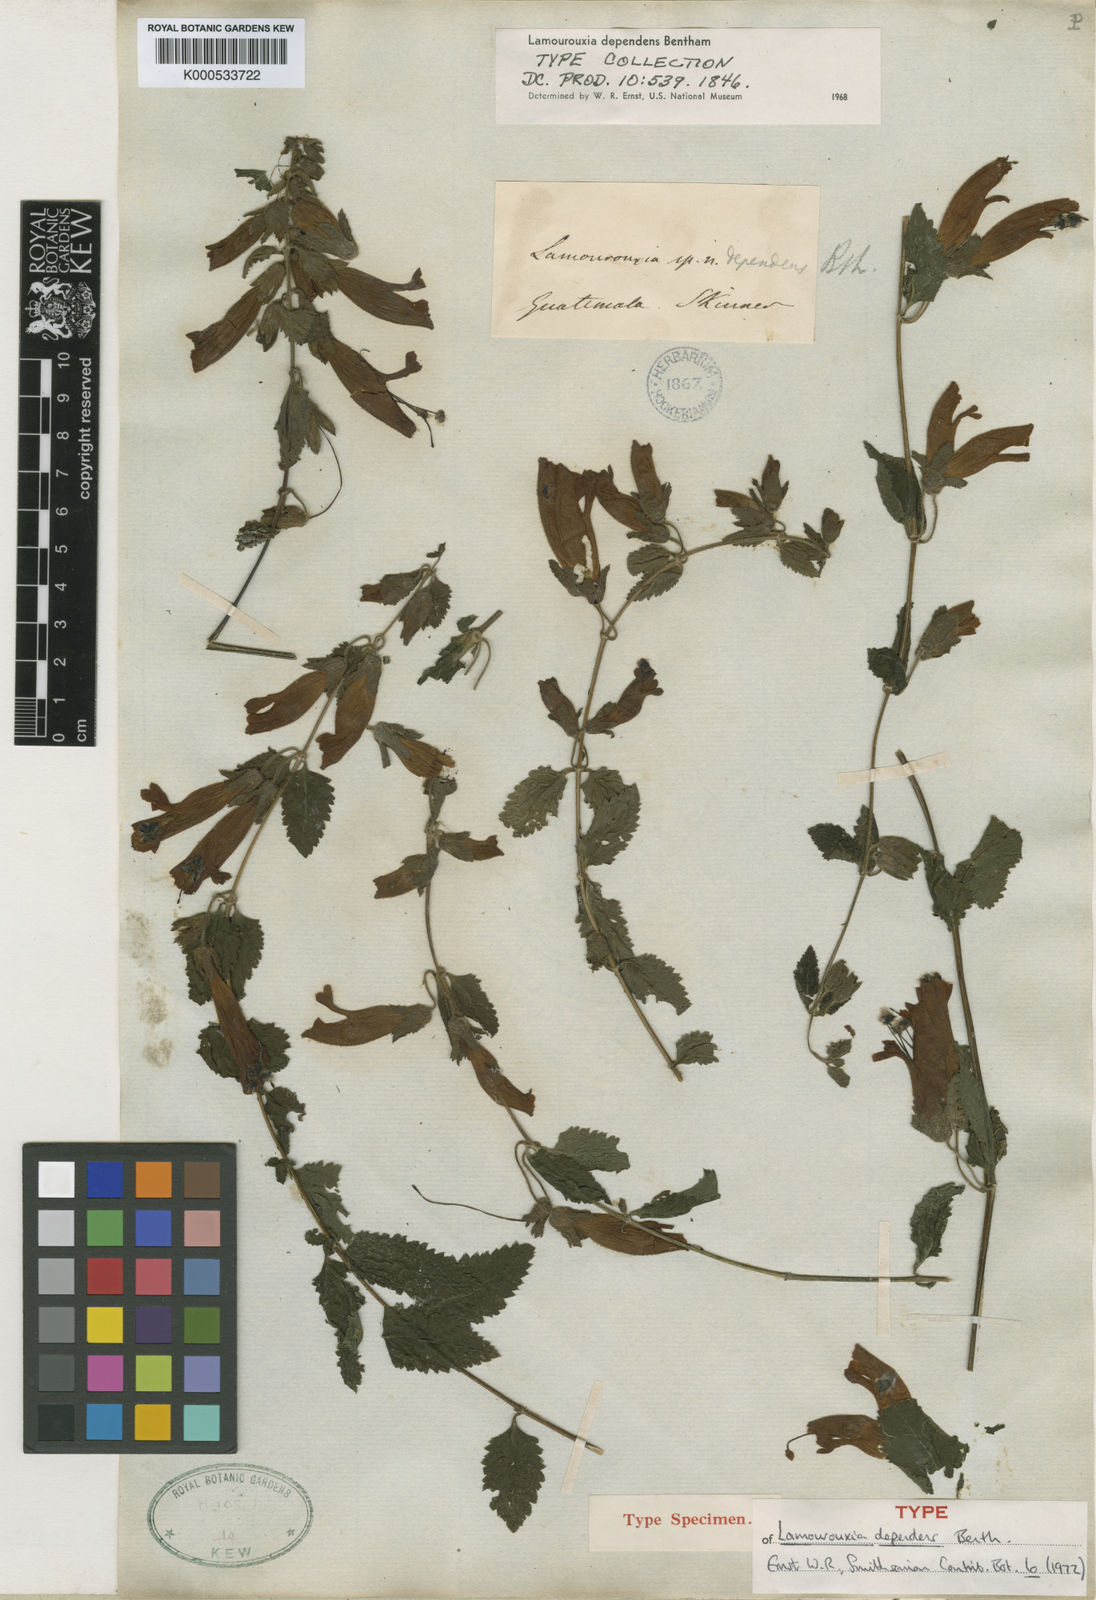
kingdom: Plantae
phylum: Tracheophyta
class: Magnoliopsida
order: Lamiales
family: Orobanchaceae
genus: Lamourouxia
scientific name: Lamourouxia dependens
